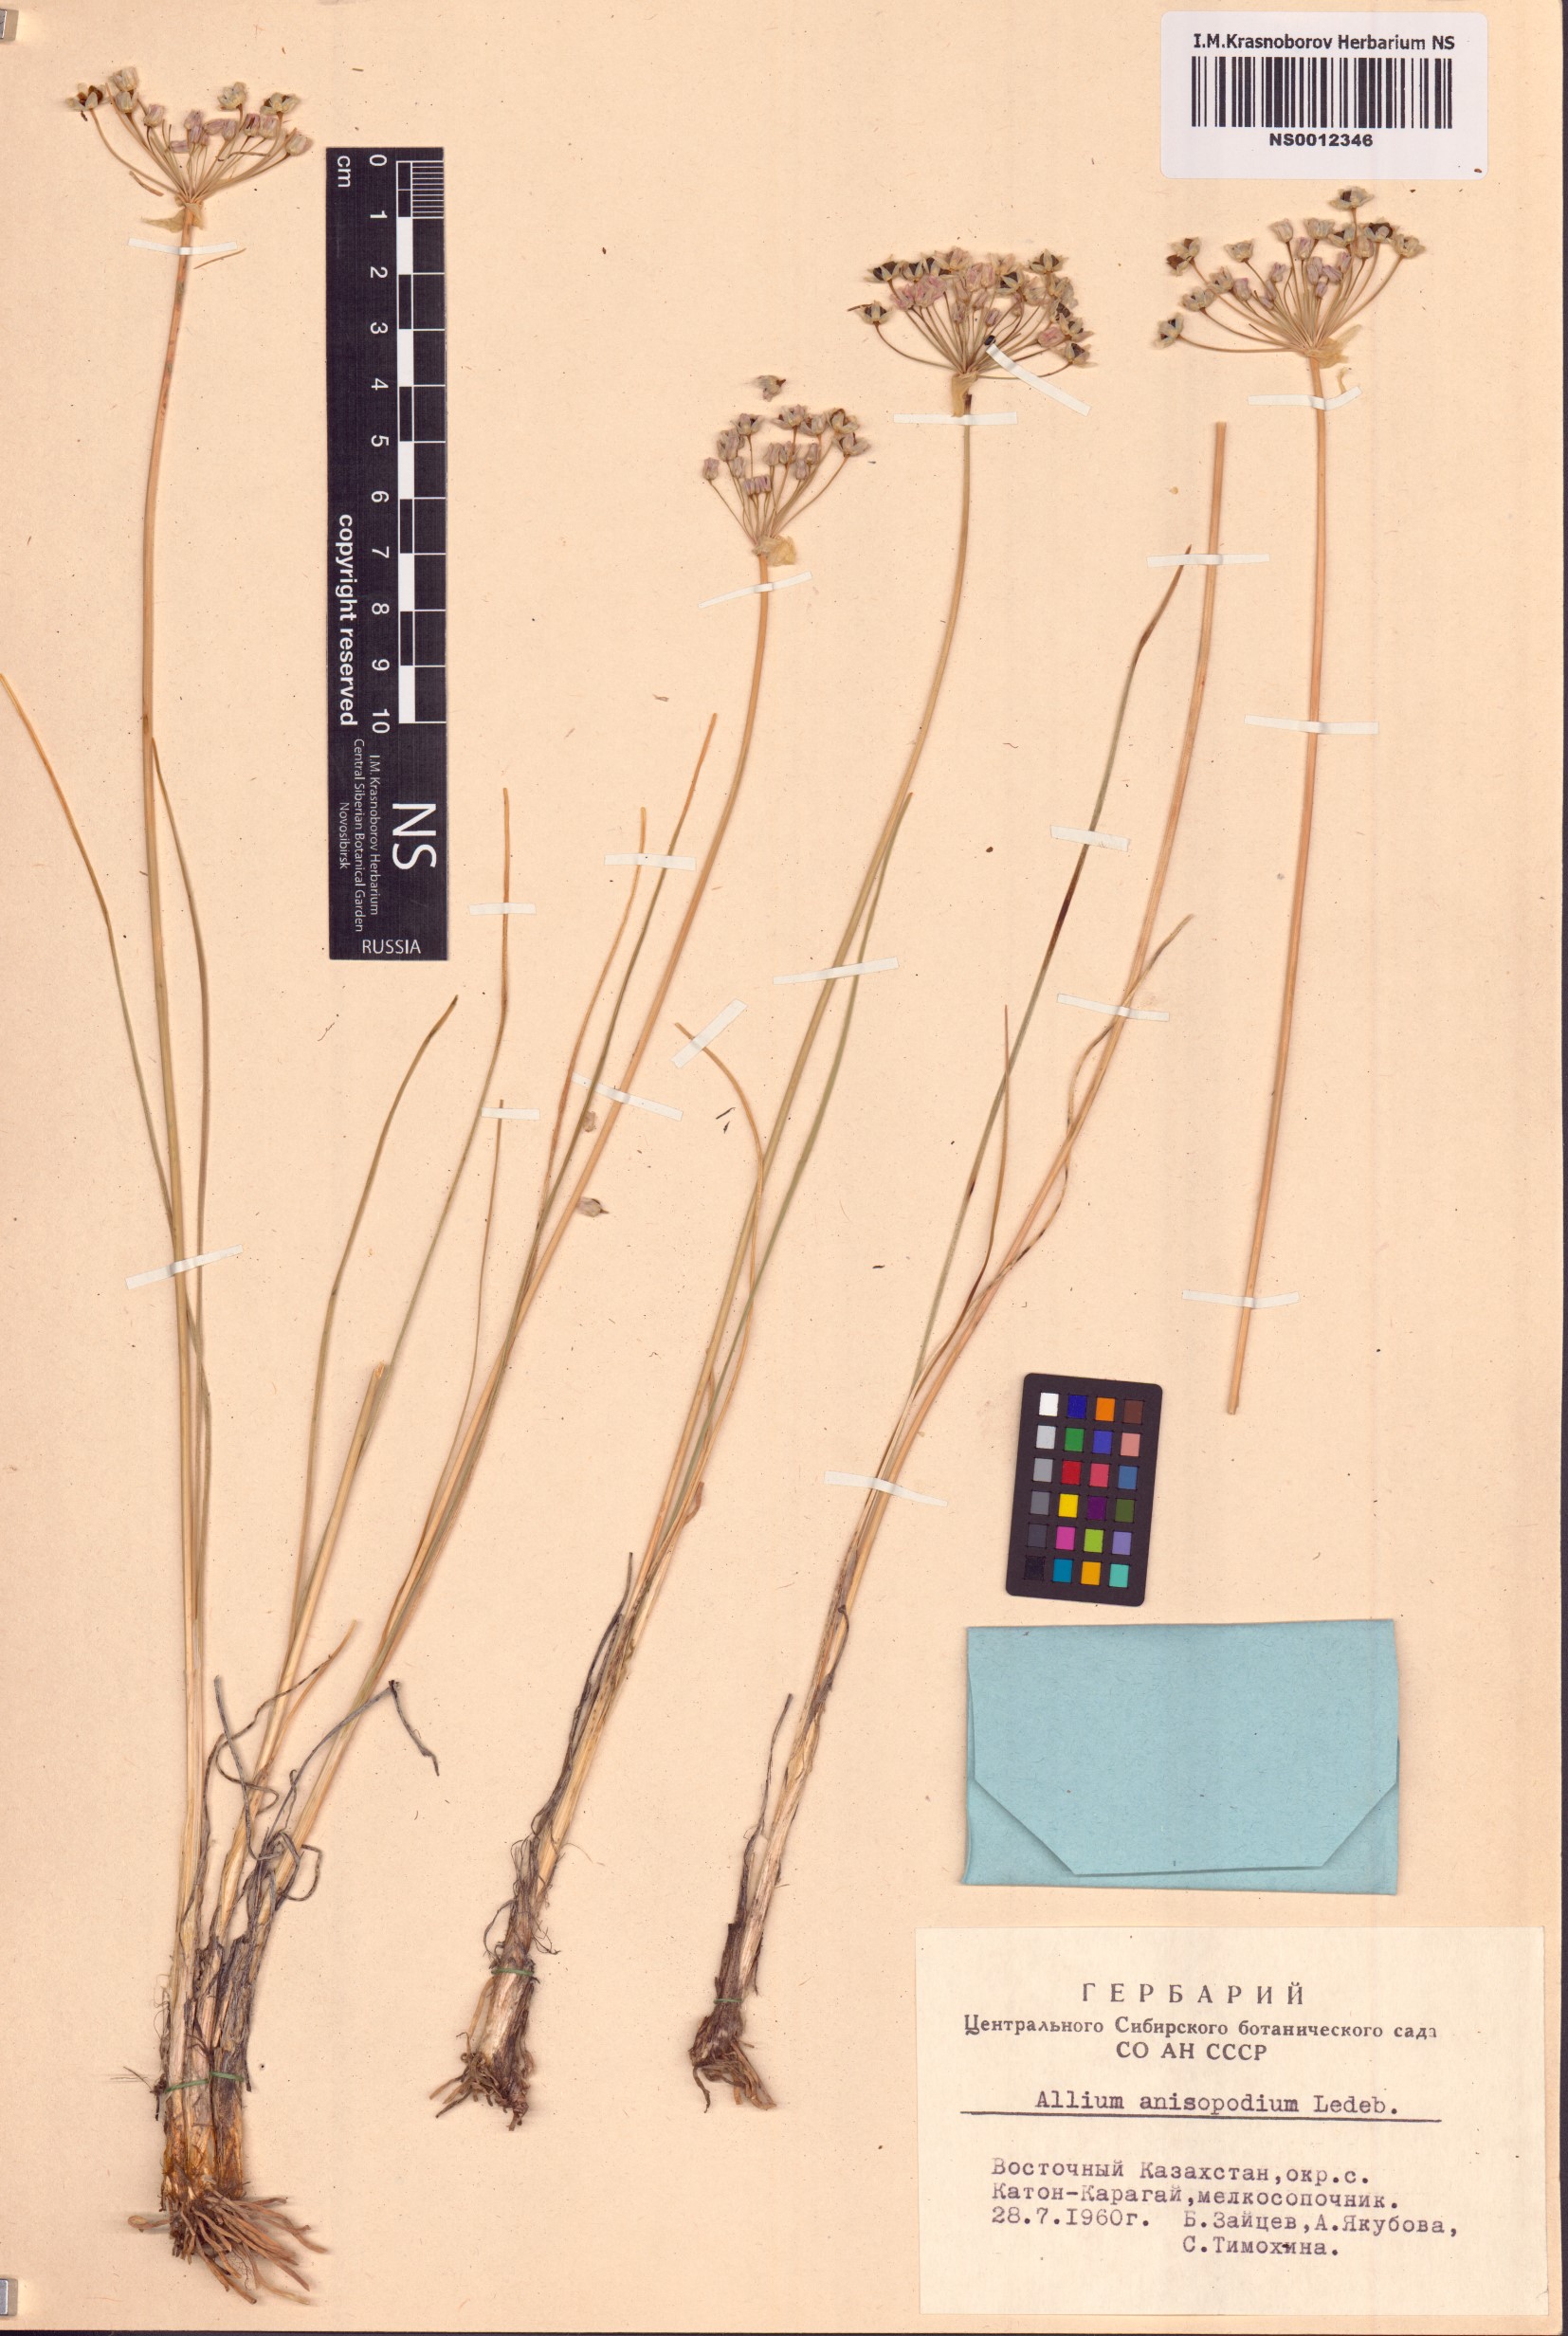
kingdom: Plantae
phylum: Tracheophyta
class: Liliopsida
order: Asparagales
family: Amaryllidaceae
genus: Allium
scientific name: Allium anisopodium
